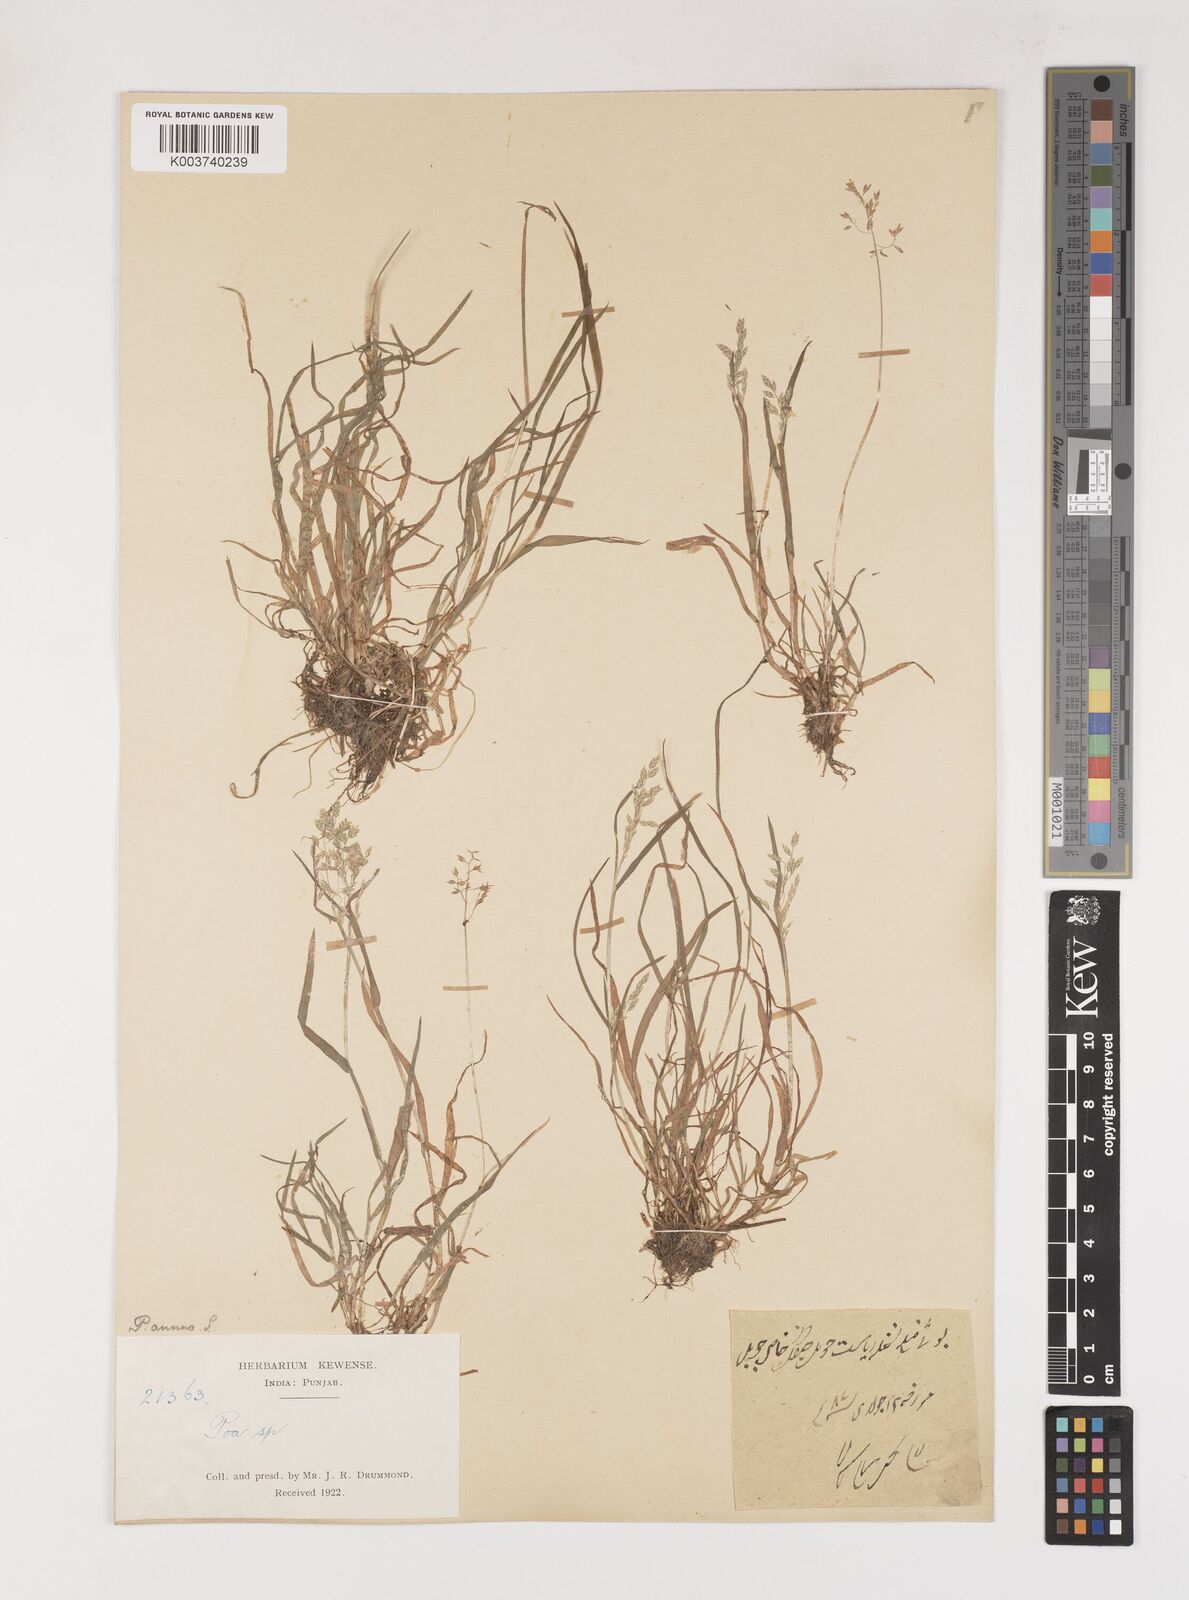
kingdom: Plantae
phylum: Tracheophyta
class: Liliopsida
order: Poales
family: Poaceae
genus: Poa
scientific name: Poa annua
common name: Annual bluegrass
